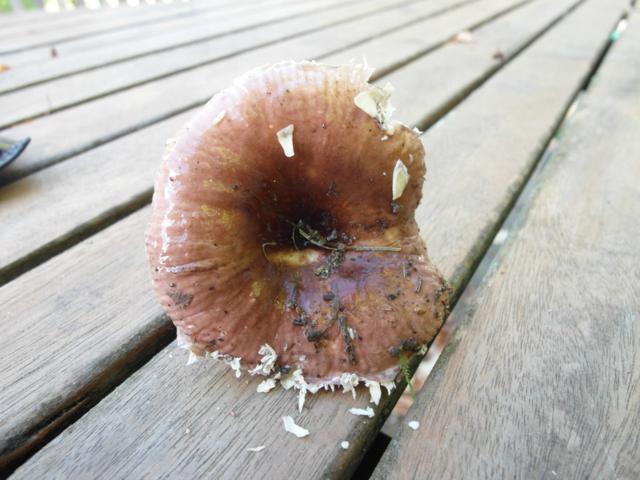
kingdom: Fungi
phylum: Basidiomycota
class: Agaricomycetes
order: Russulales
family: Russulaceae
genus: Russula
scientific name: Russula nauseosa
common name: spinkel skørhat
